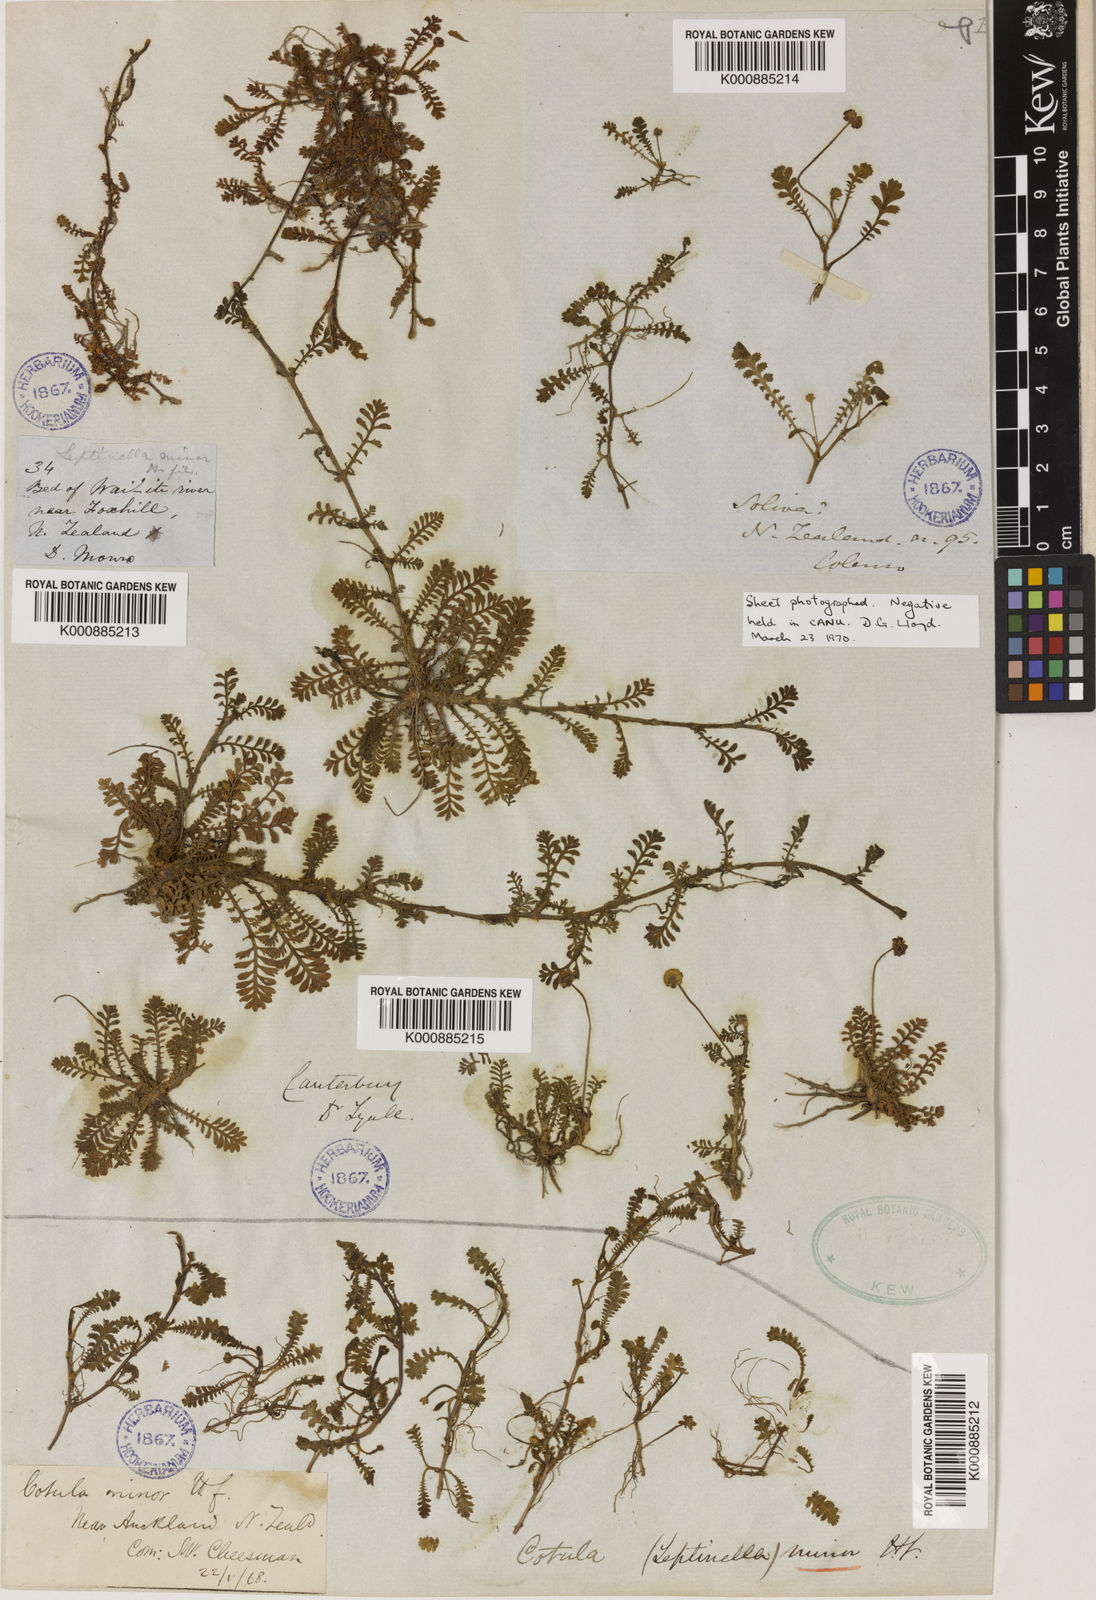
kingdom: Plantae
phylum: Tracheophyta
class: Magnoliopsida
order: Asterales
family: Asteraceae
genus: Leptinella
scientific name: Leptinella minor
